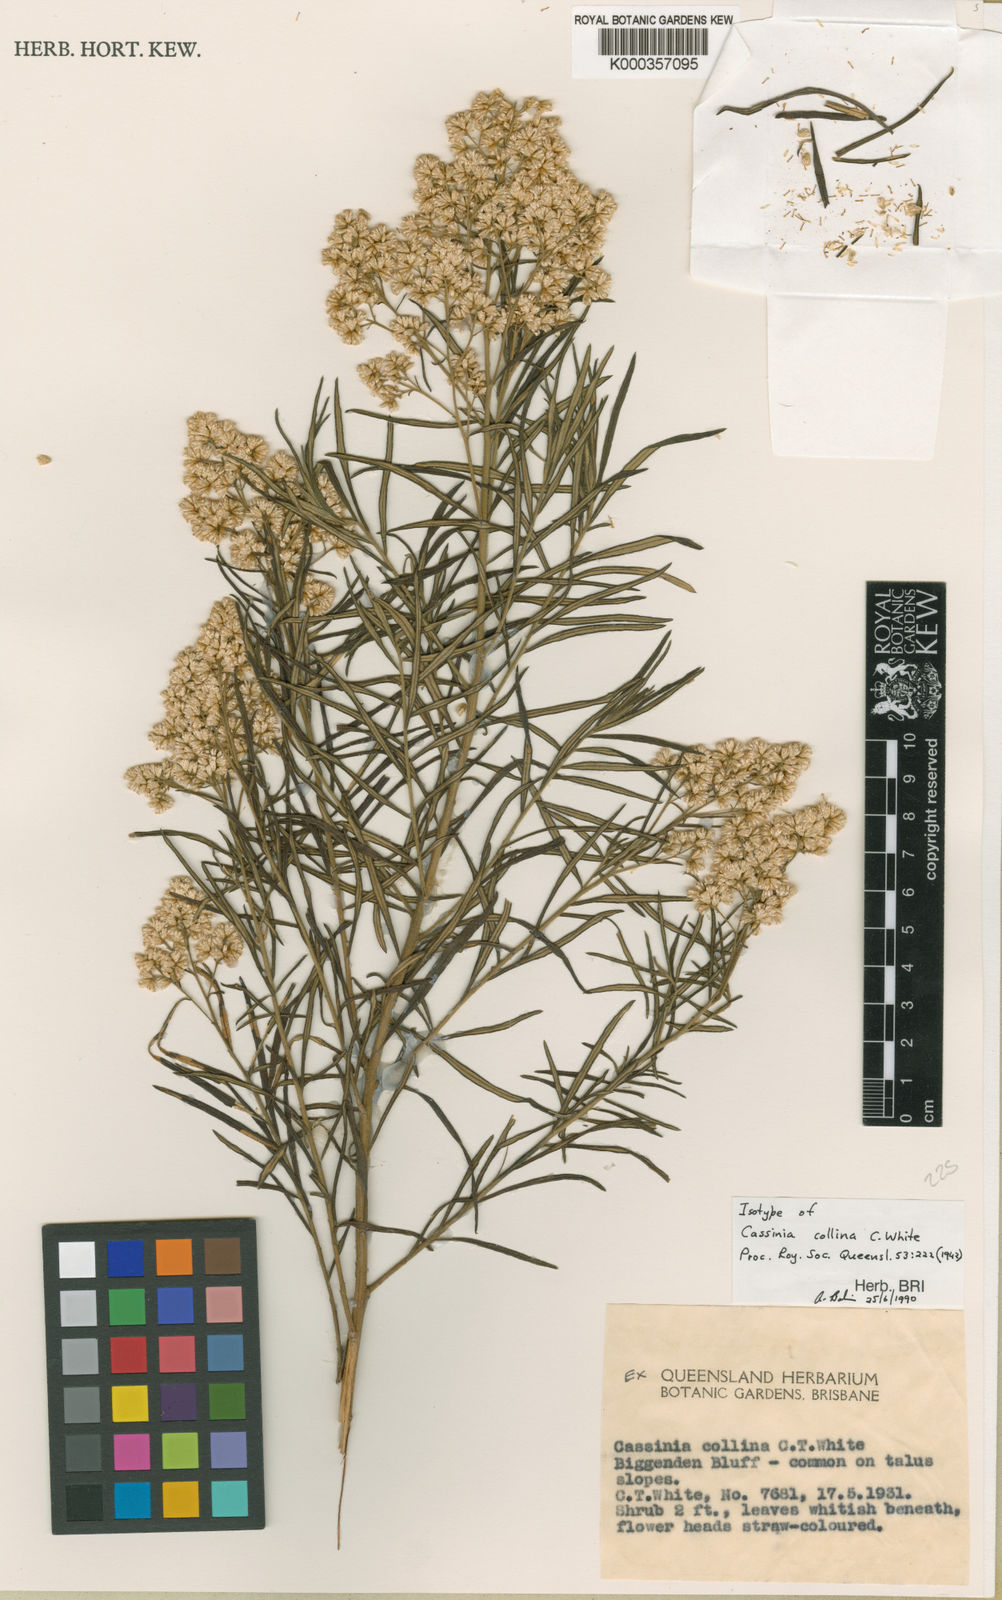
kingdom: Plantae
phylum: Tracheophyta
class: Magnoliopsida
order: Asterales
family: Asteraceae
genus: Cassinia
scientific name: Cassinia collina
